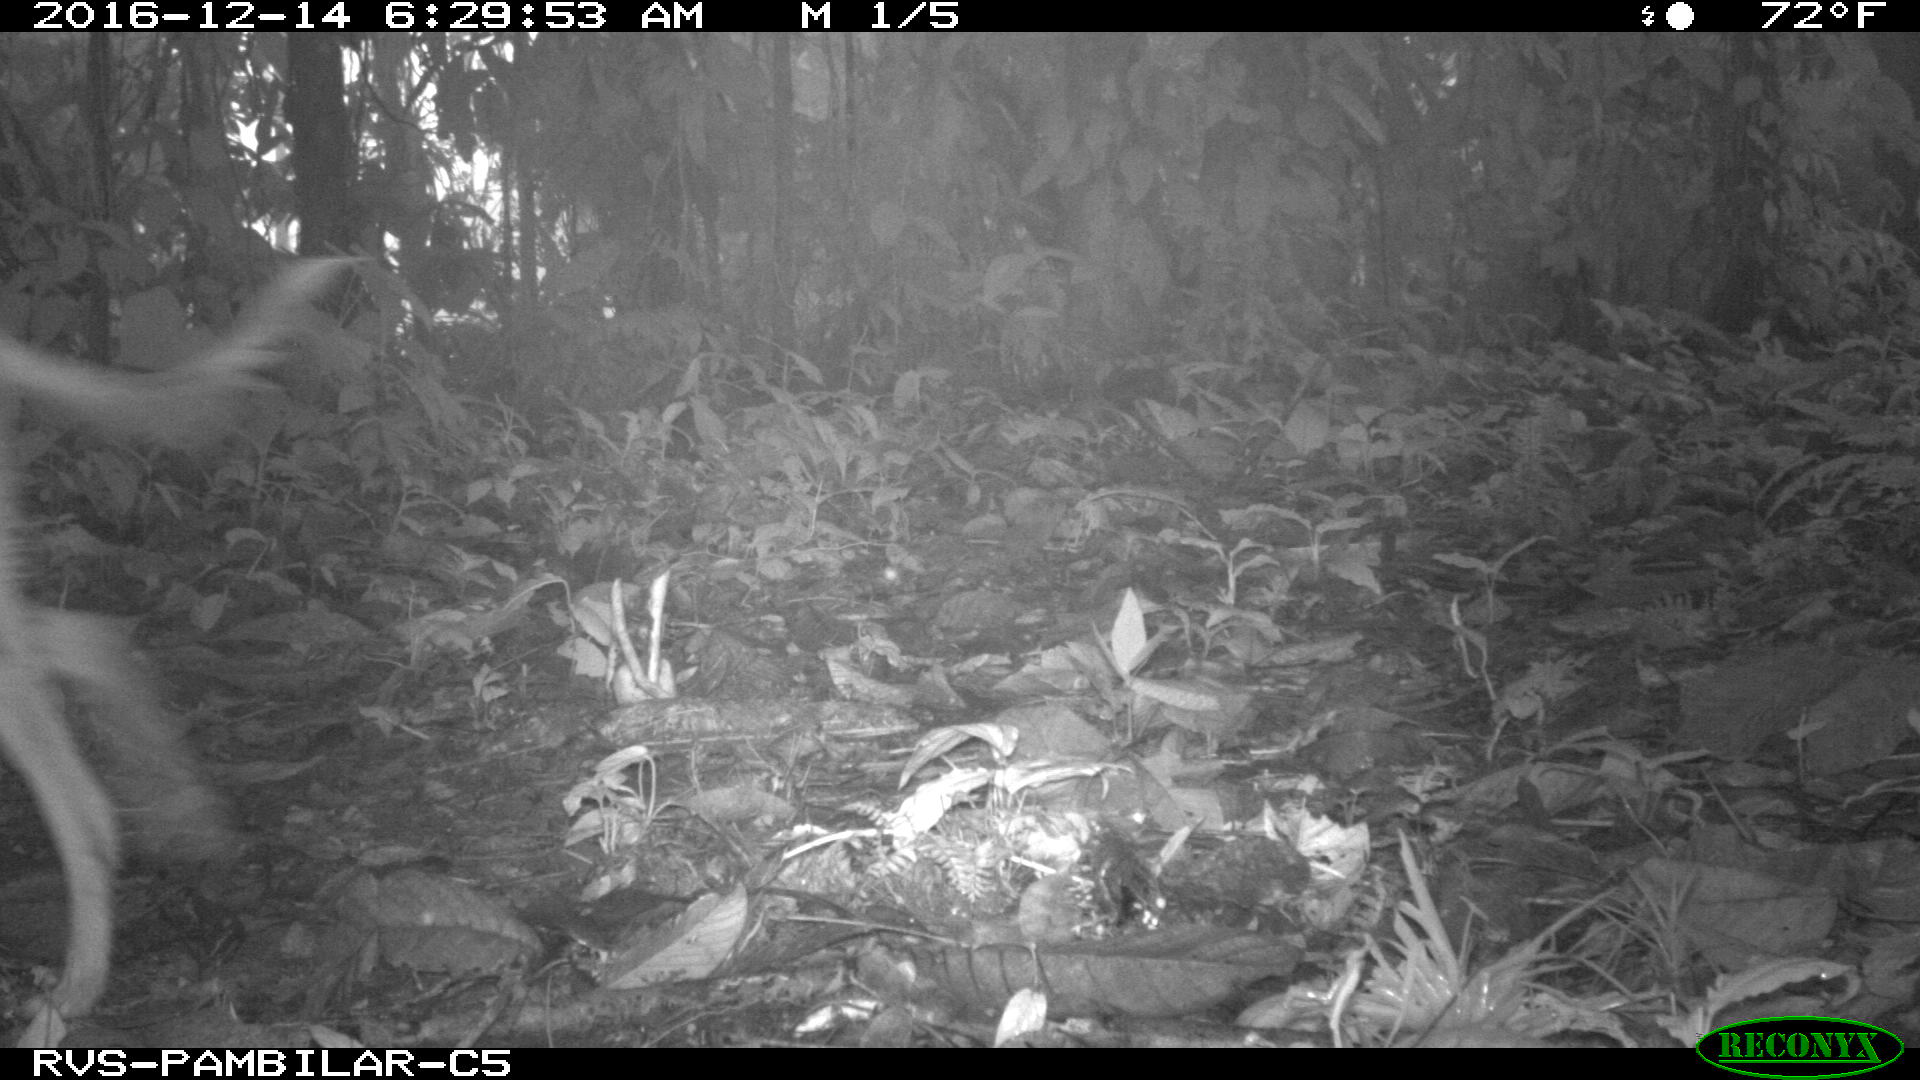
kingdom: Animalia
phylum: Chordata
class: Mammalia
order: Carnivora
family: Canidae
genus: Canis
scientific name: Canis lupus
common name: Gray wolf
